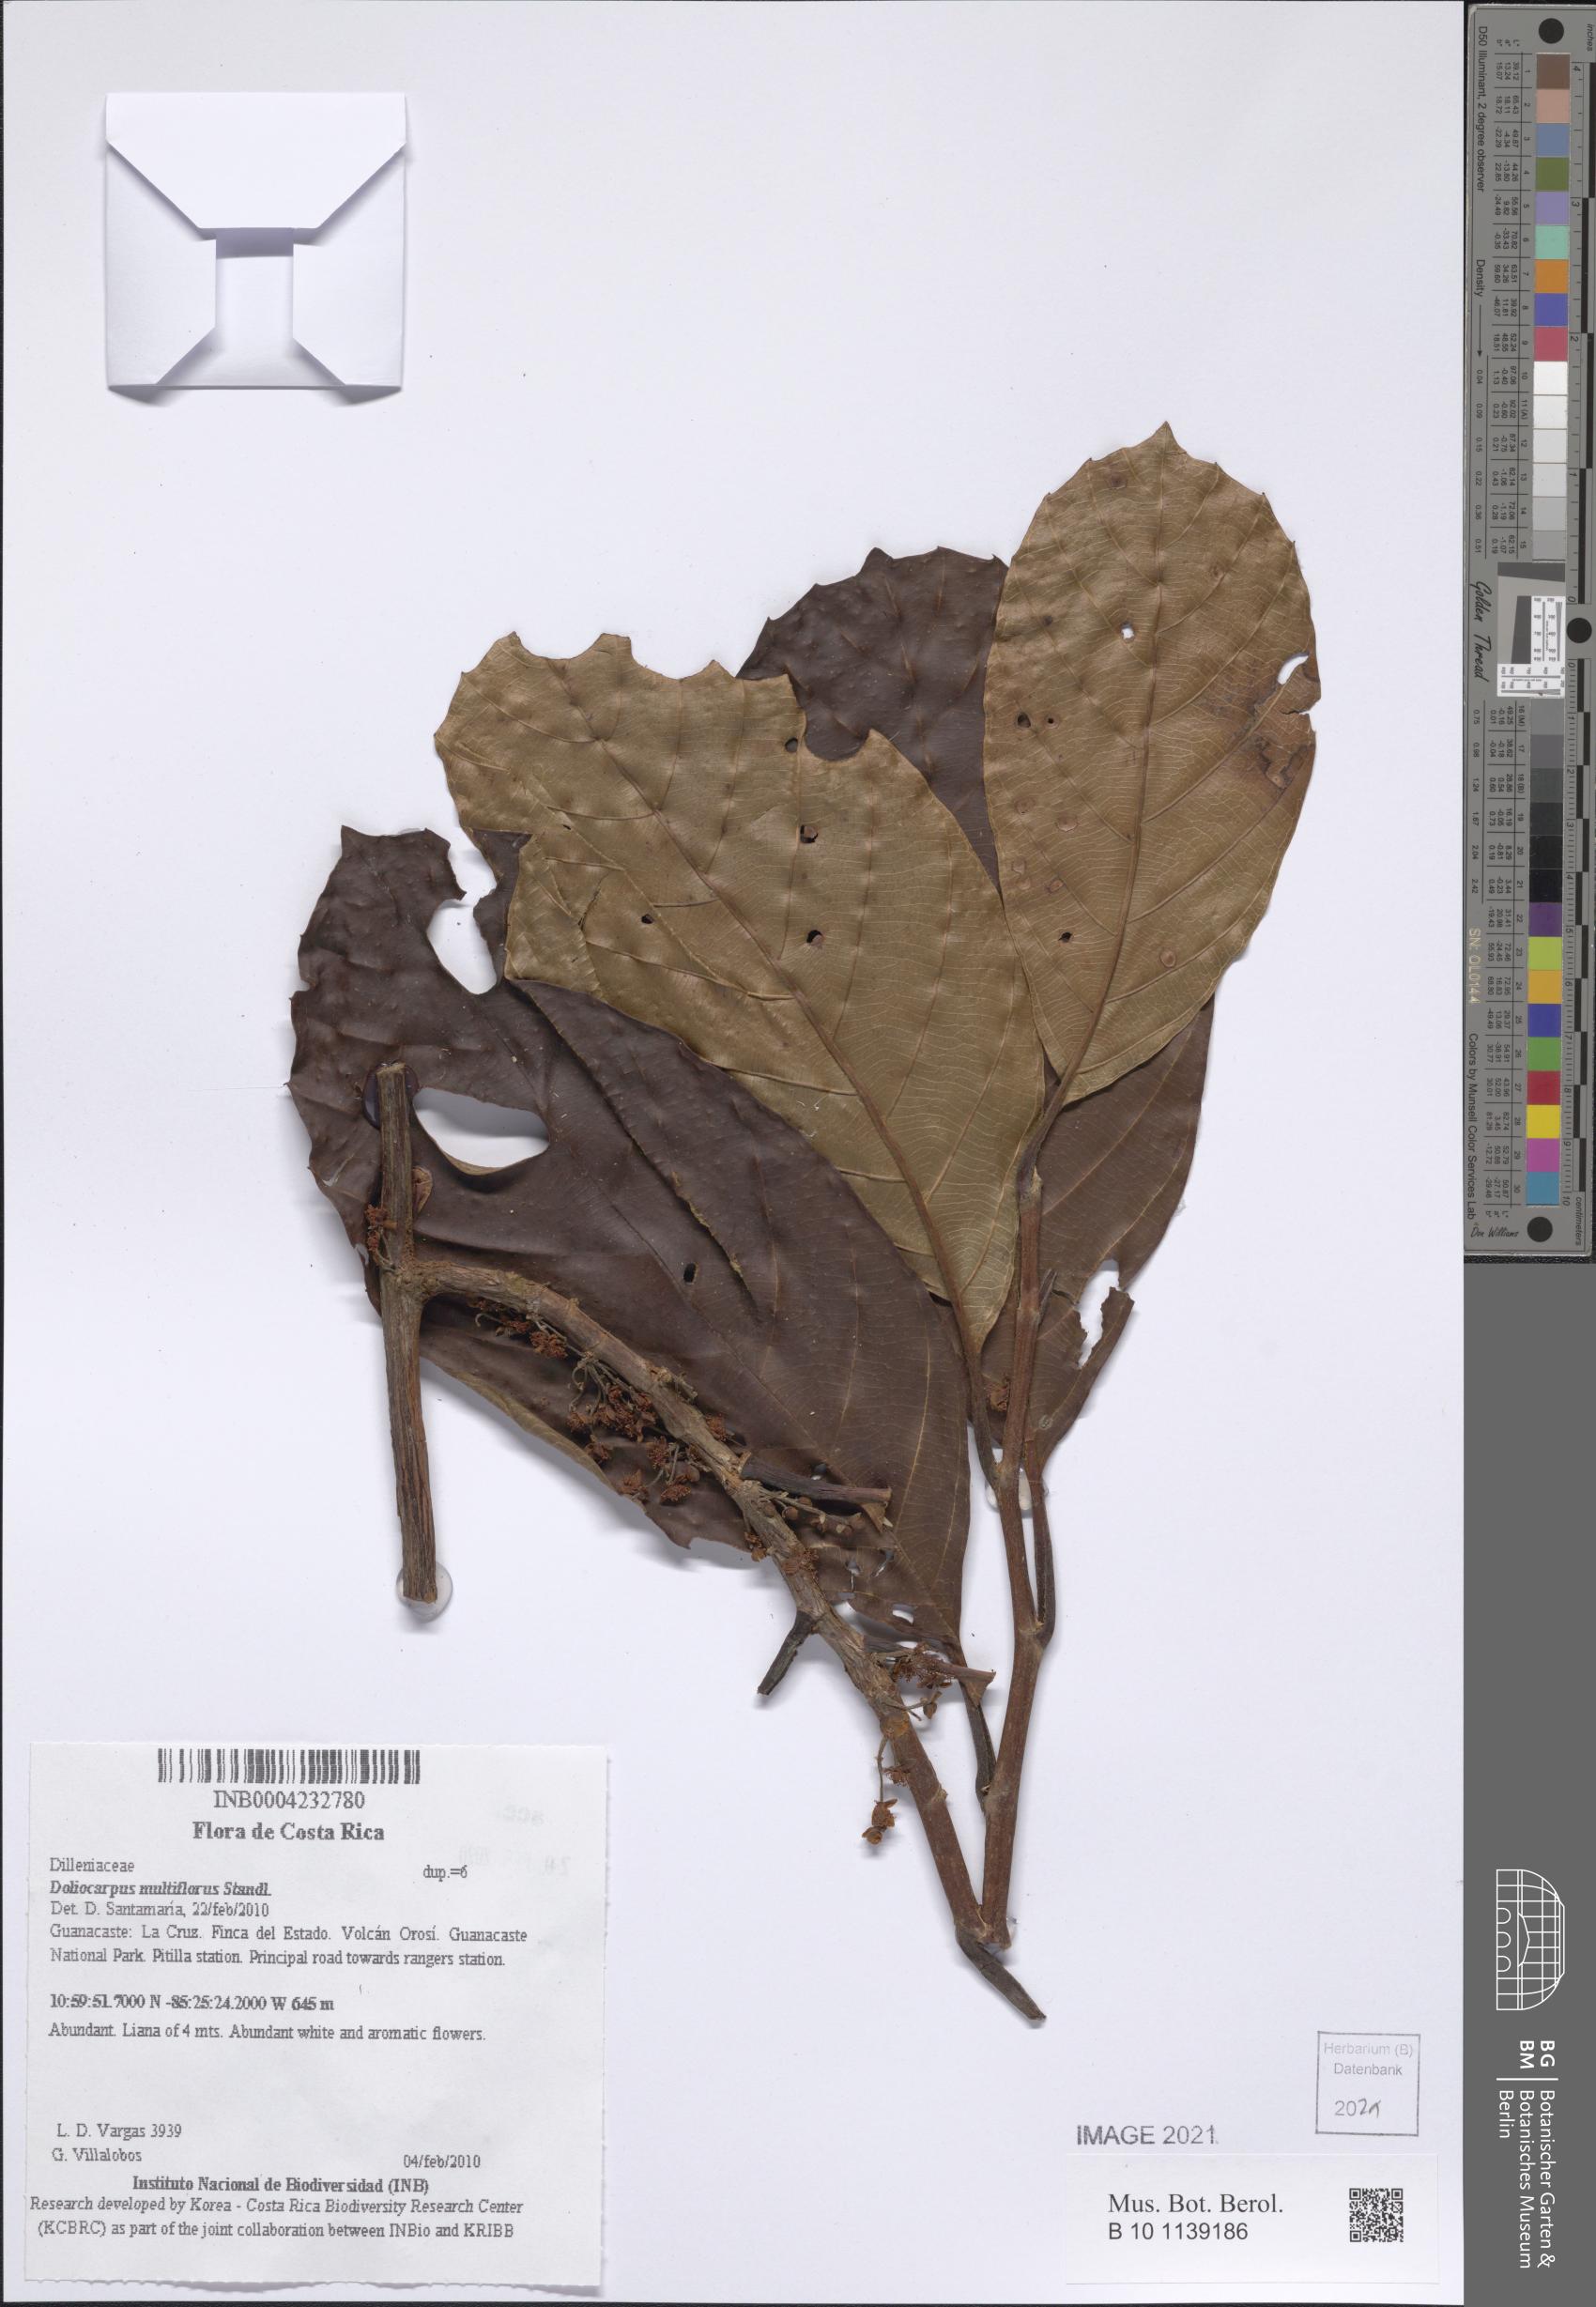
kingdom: Plantae
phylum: Tracheophyta
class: Magnoliopsida
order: Dilleniales
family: Dilleniaceae
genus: Doliocarpus
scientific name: Doliocarpus multiflorus
